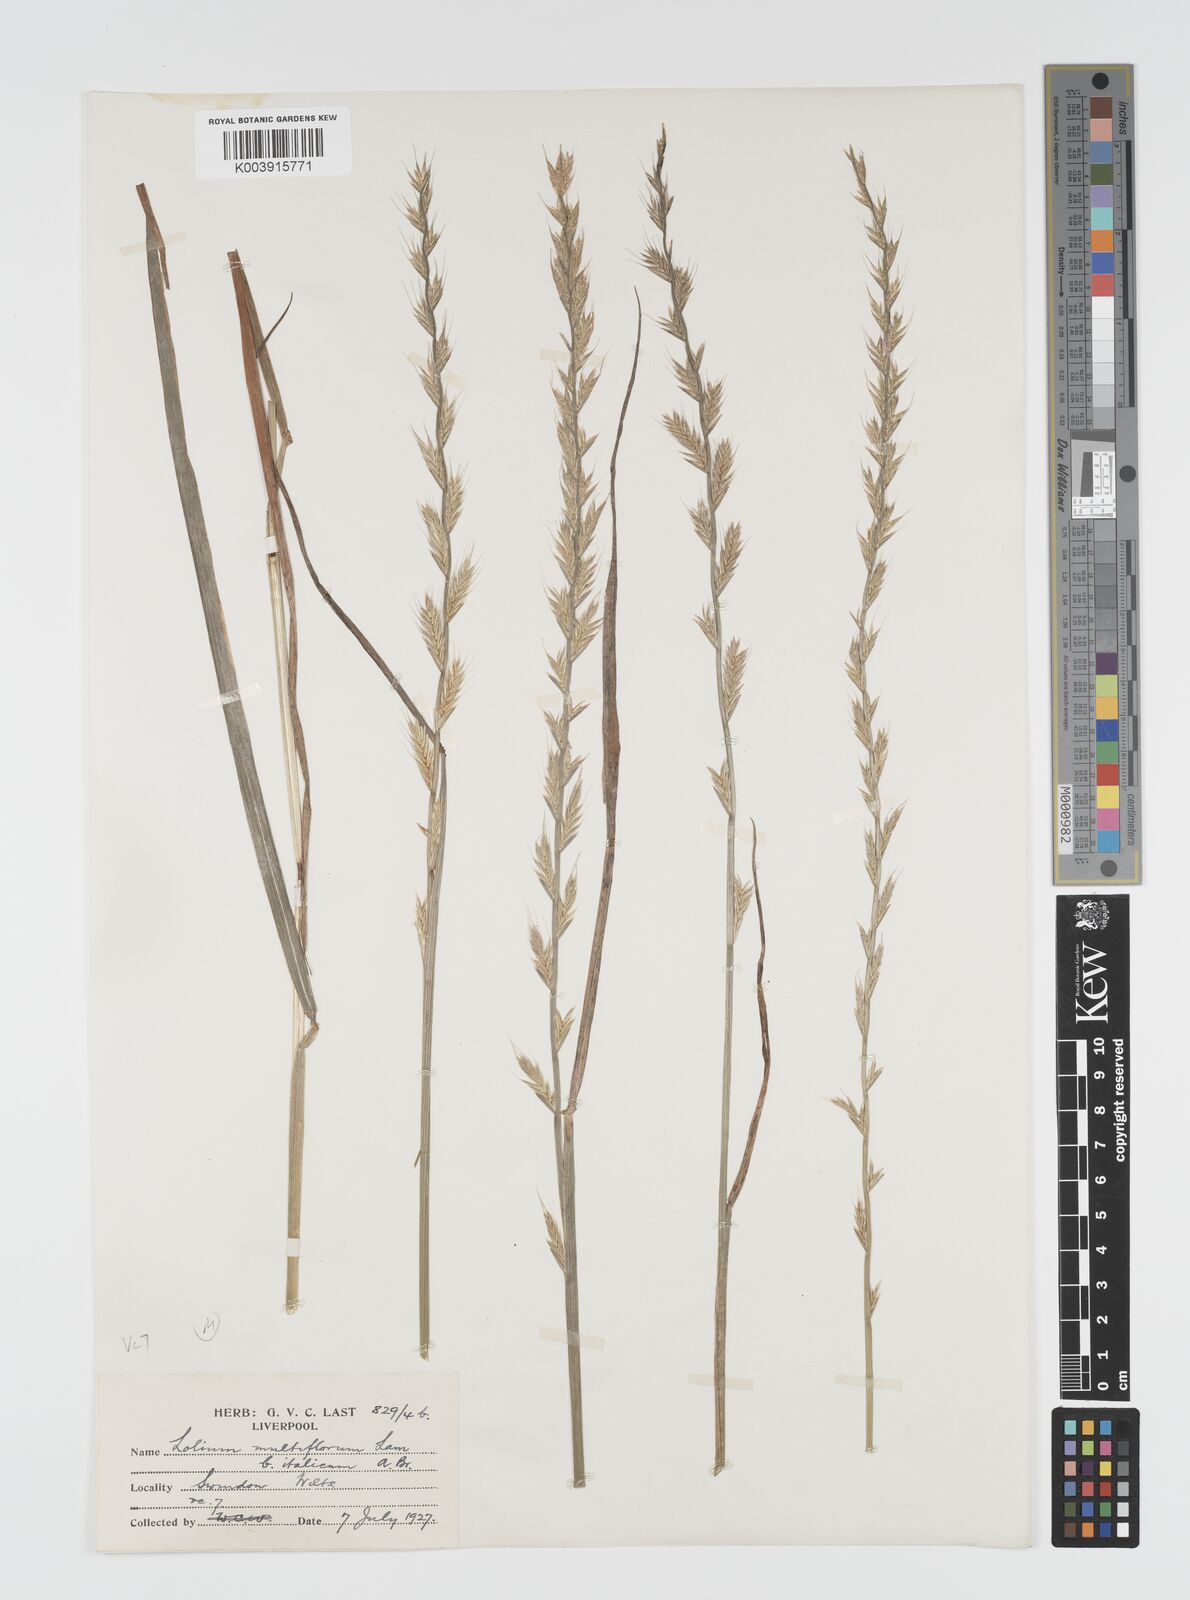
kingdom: Plantae
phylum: Tracheophyta
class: Liliopsida
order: Poales
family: Poaceae
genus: Lolium
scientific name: Lolium multiflorum
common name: Annual ryegrass
